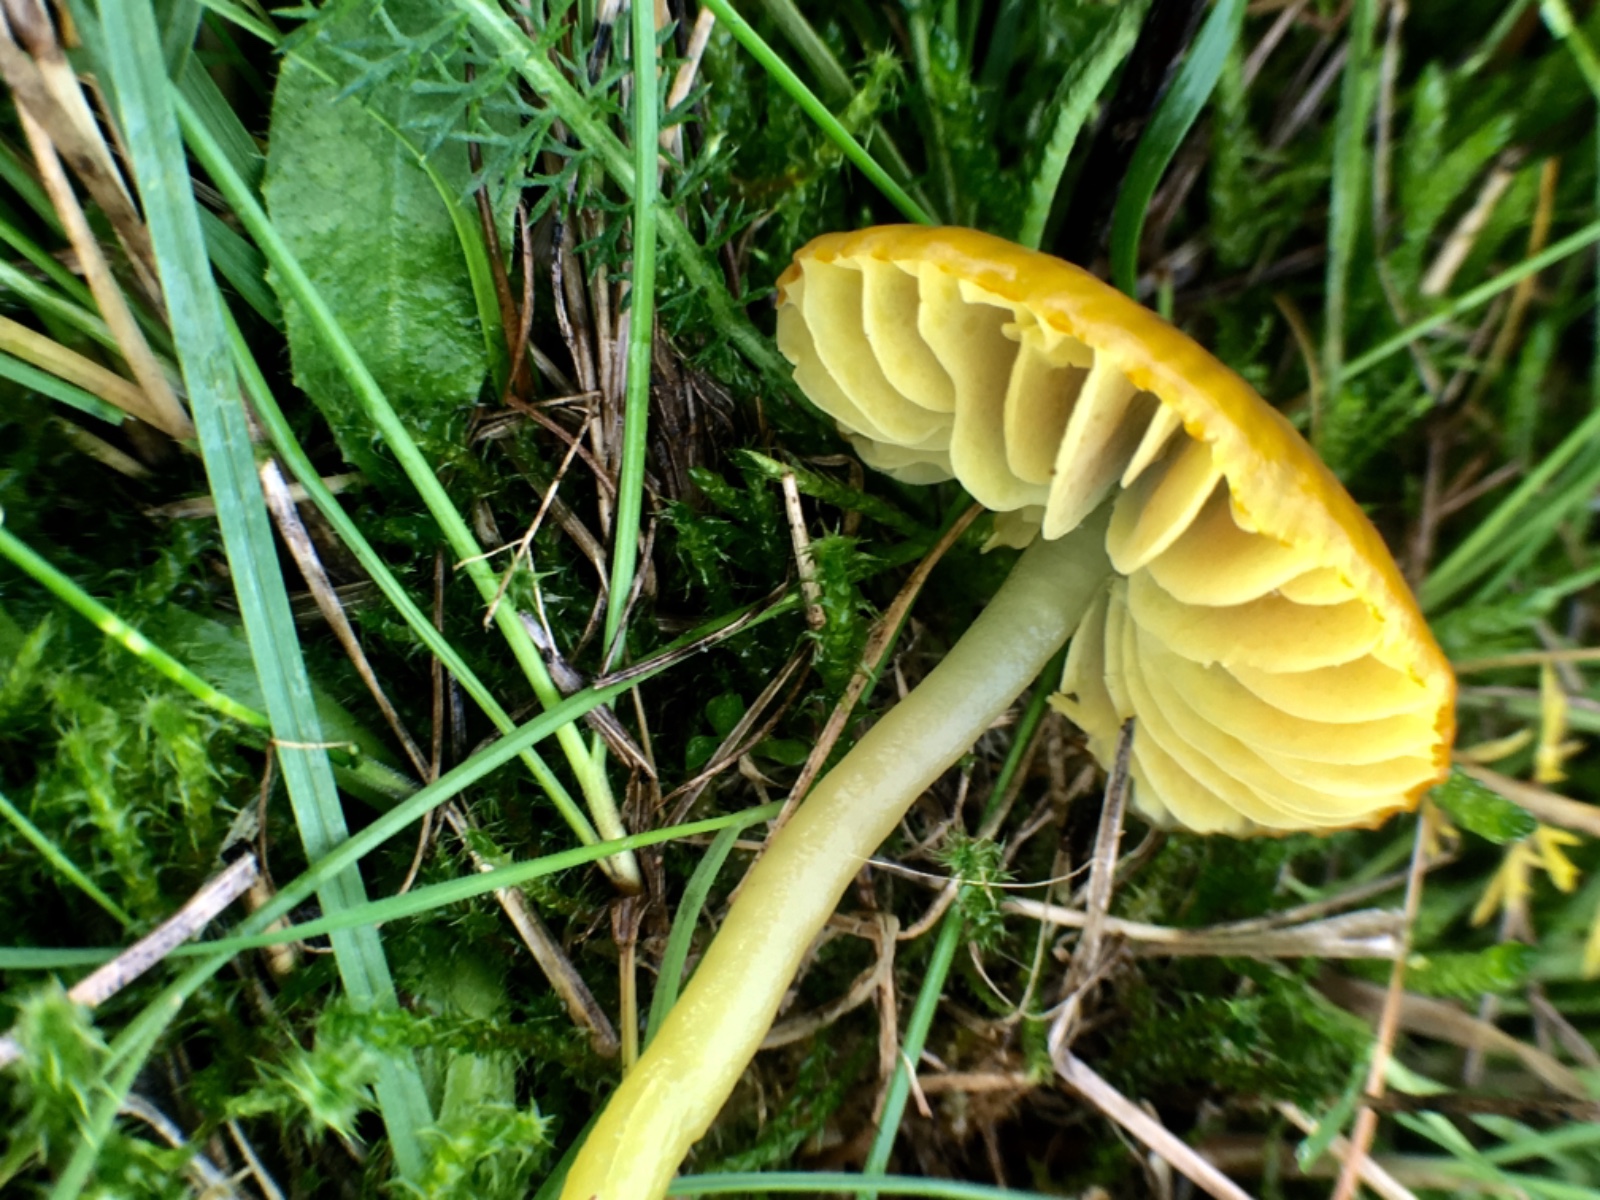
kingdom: Fungi
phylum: Basidiomycota
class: Agaricomycetes
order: Agaricales
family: Hygrophoraceae
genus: Gliophorus
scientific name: Gliophorus psittacinus
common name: papegøje-vokshat
